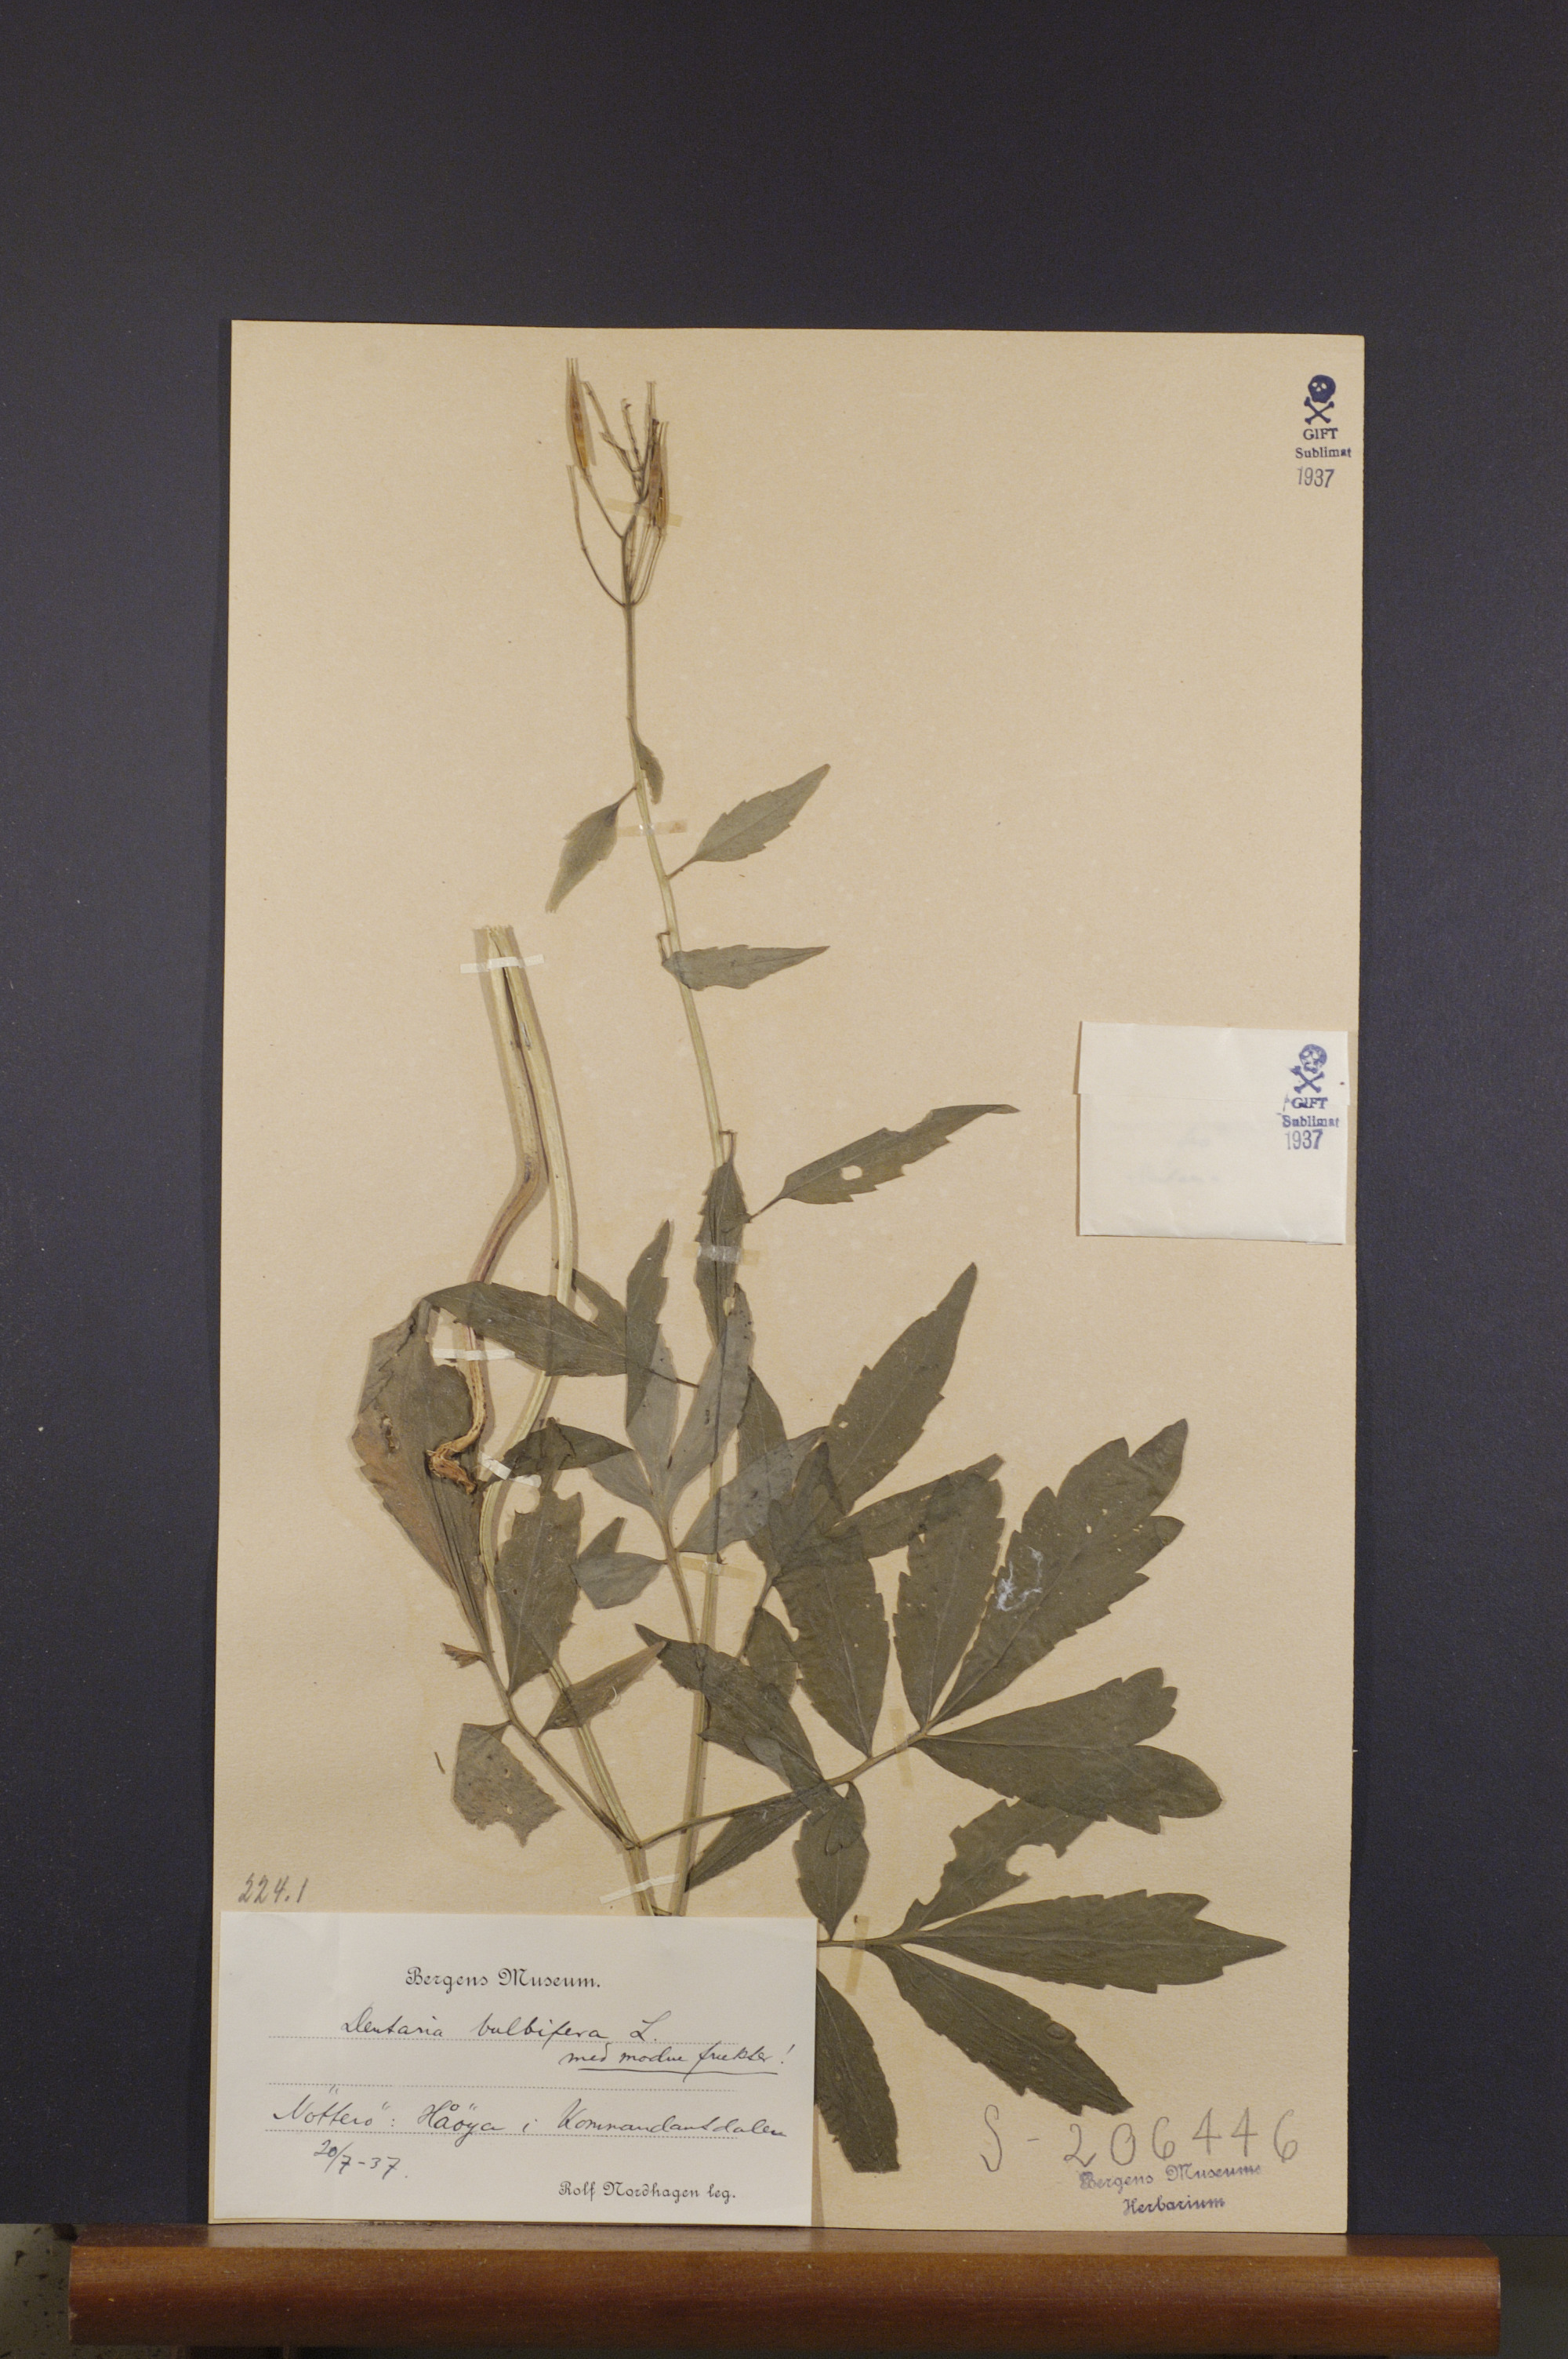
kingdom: Plantae
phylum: Tracheophyta
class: Magnoliopsida
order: Brassicales
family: Brassicaceae
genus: Cardamine
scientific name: Cardamine bulbifera
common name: Coralroot bittercress
